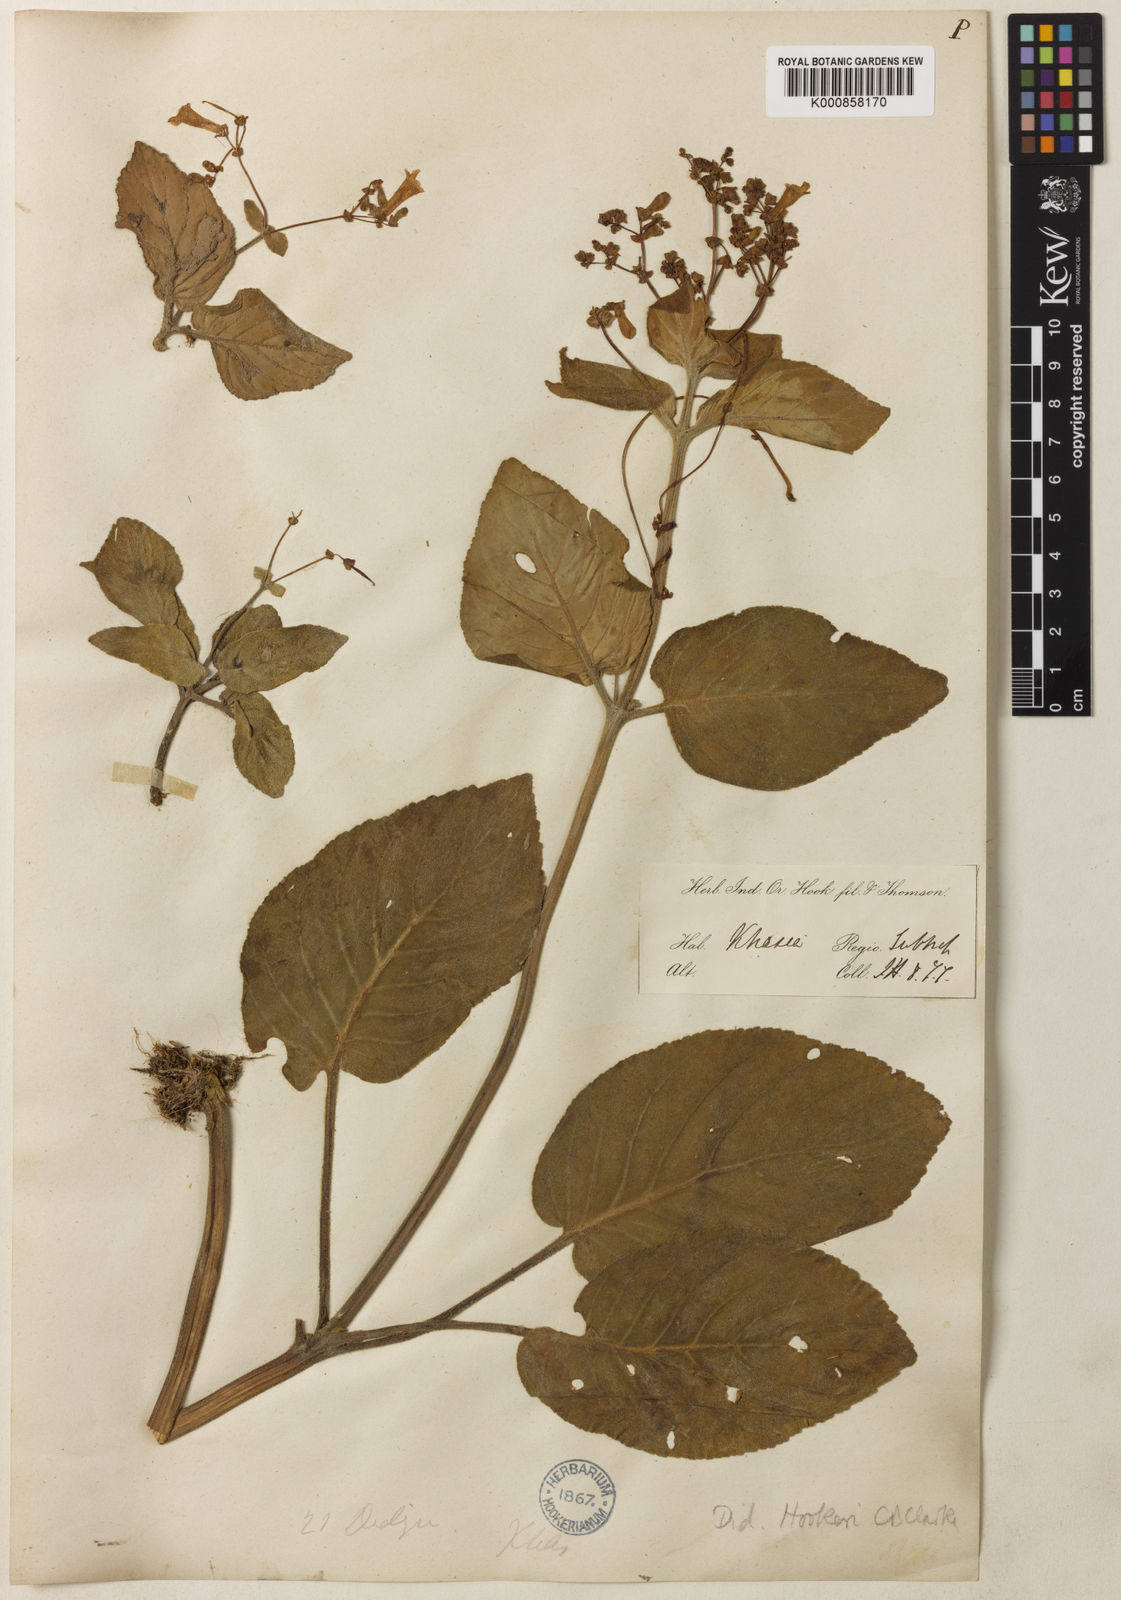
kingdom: Plantae
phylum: Tracheophyta
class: Magnoliopsida
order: Lamiales
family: Gesneriaceae
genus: Henckelia
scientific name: Henckelia
